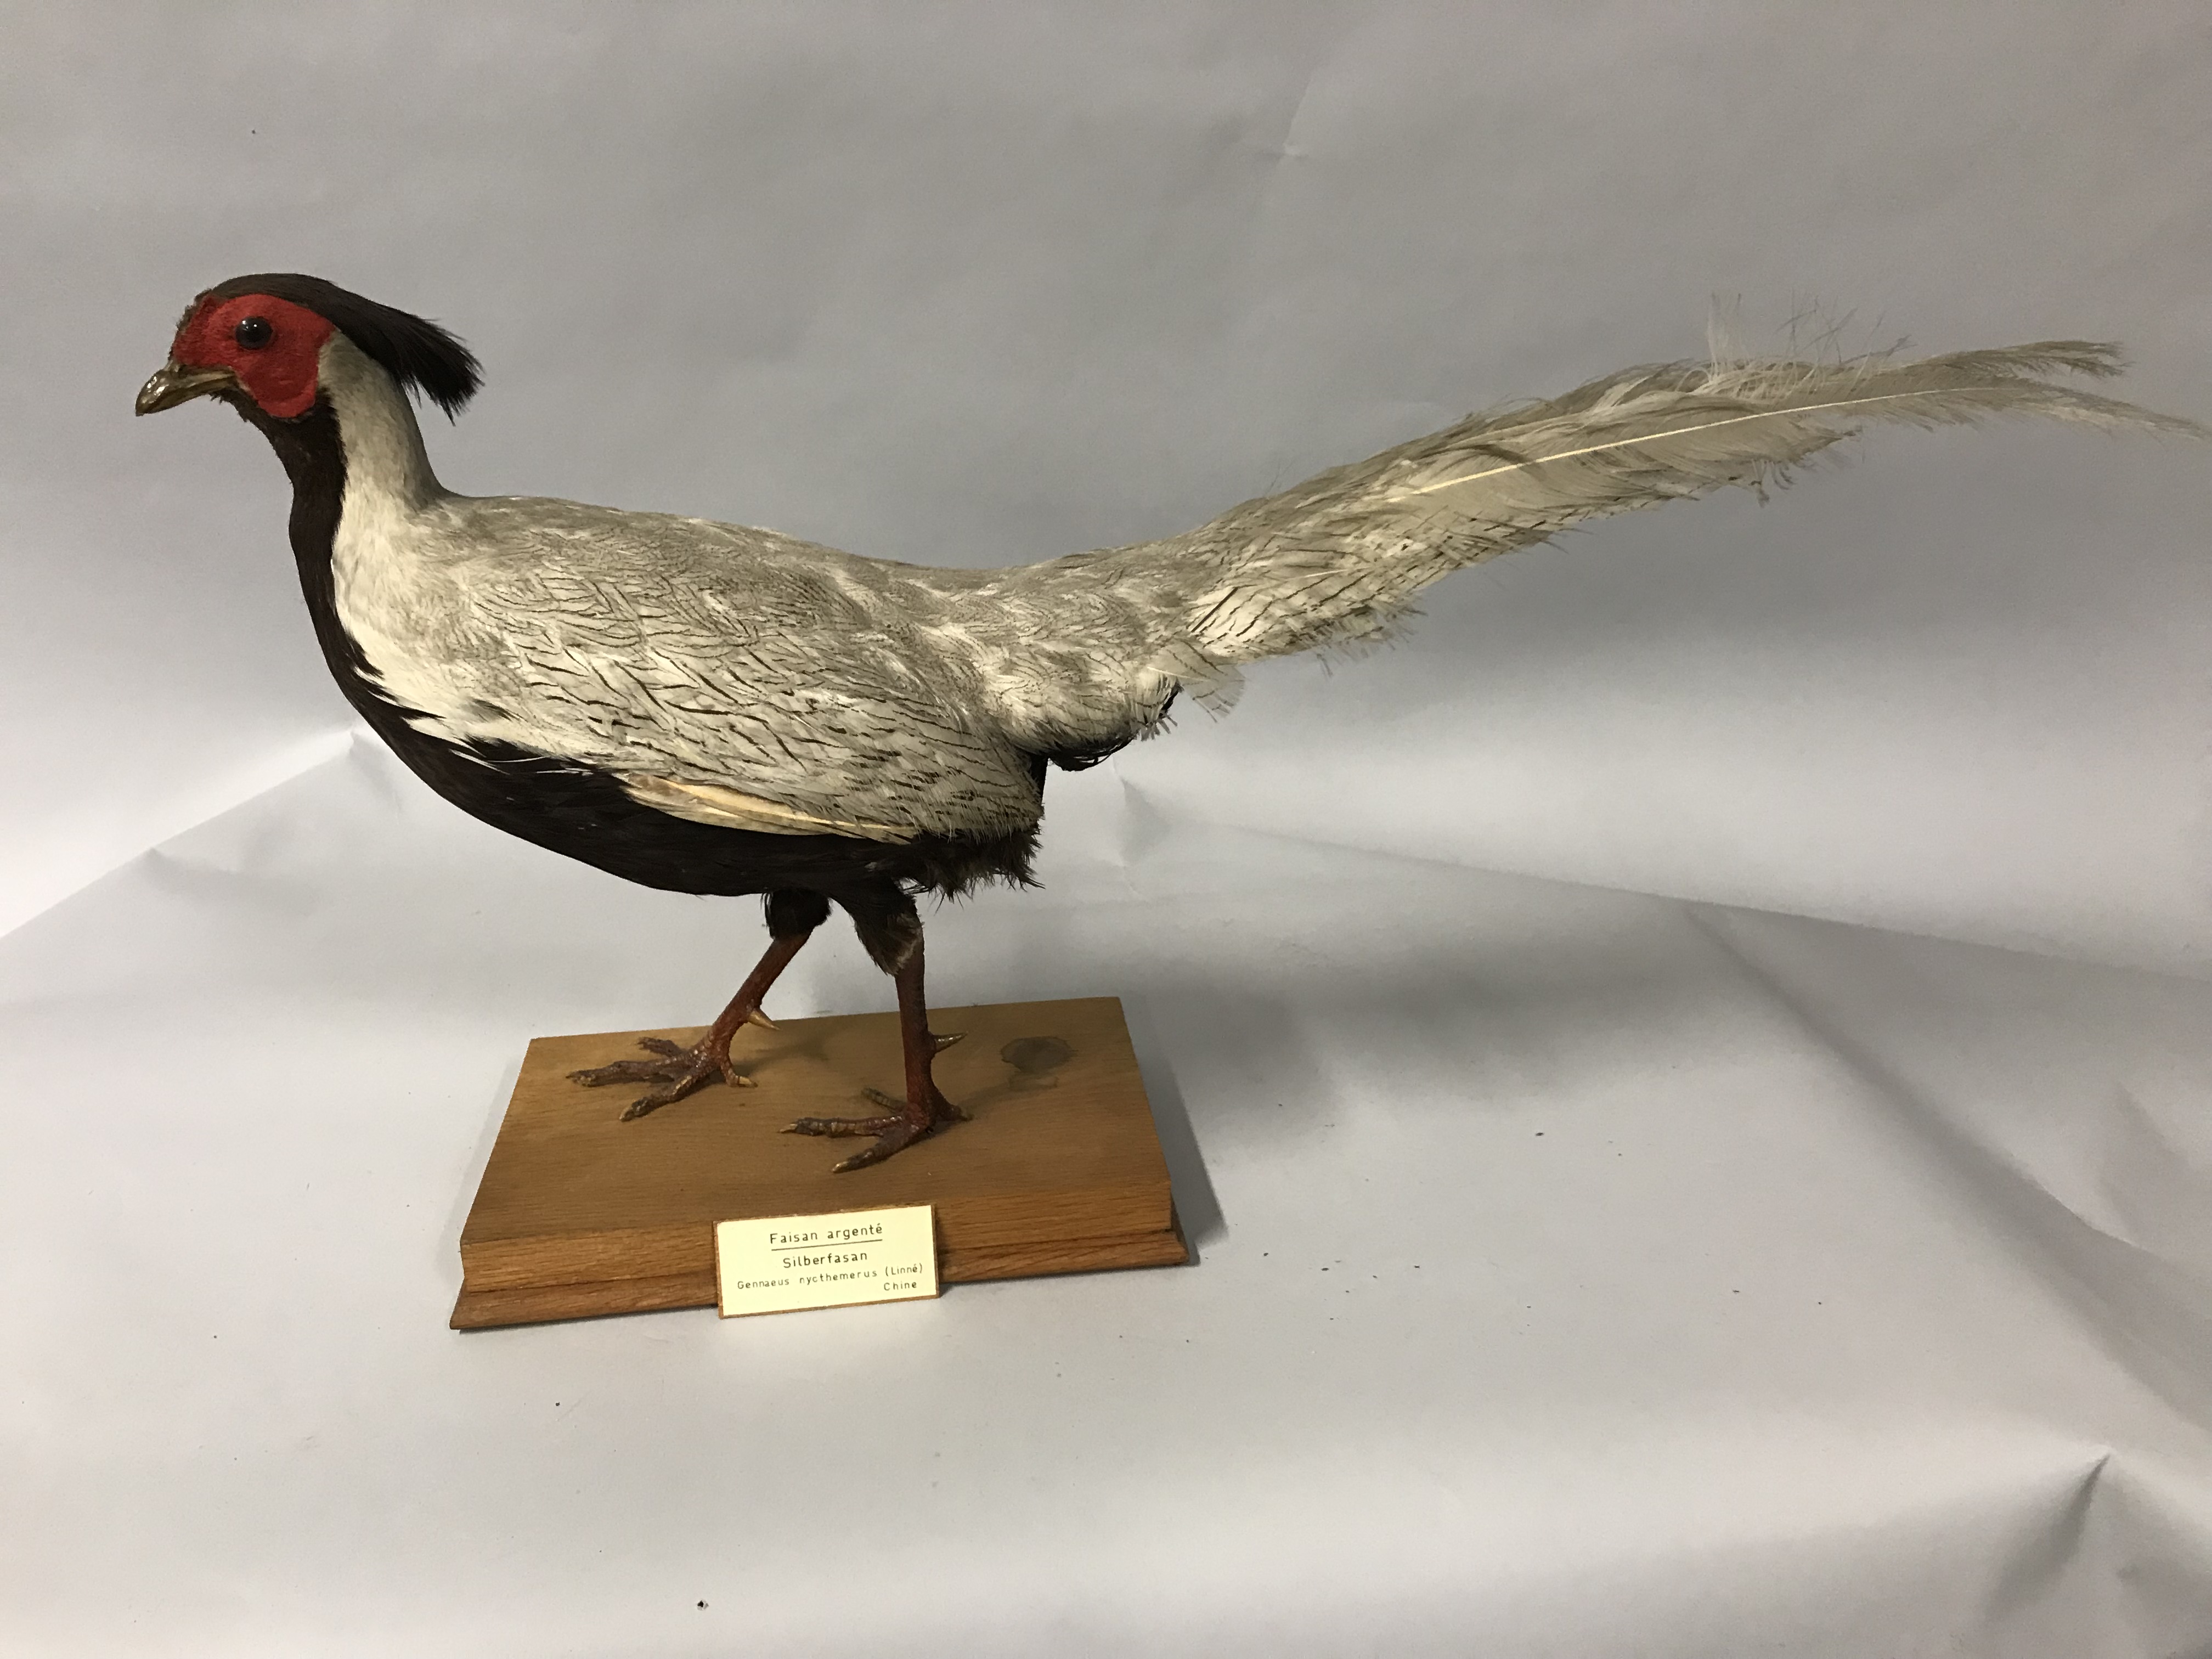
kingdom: Animalia
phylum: Chordata
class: Aves
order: Galliformes
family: Phasianidae
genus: Lophura
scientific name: Lophura nycthemera
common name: Silver pheasant
